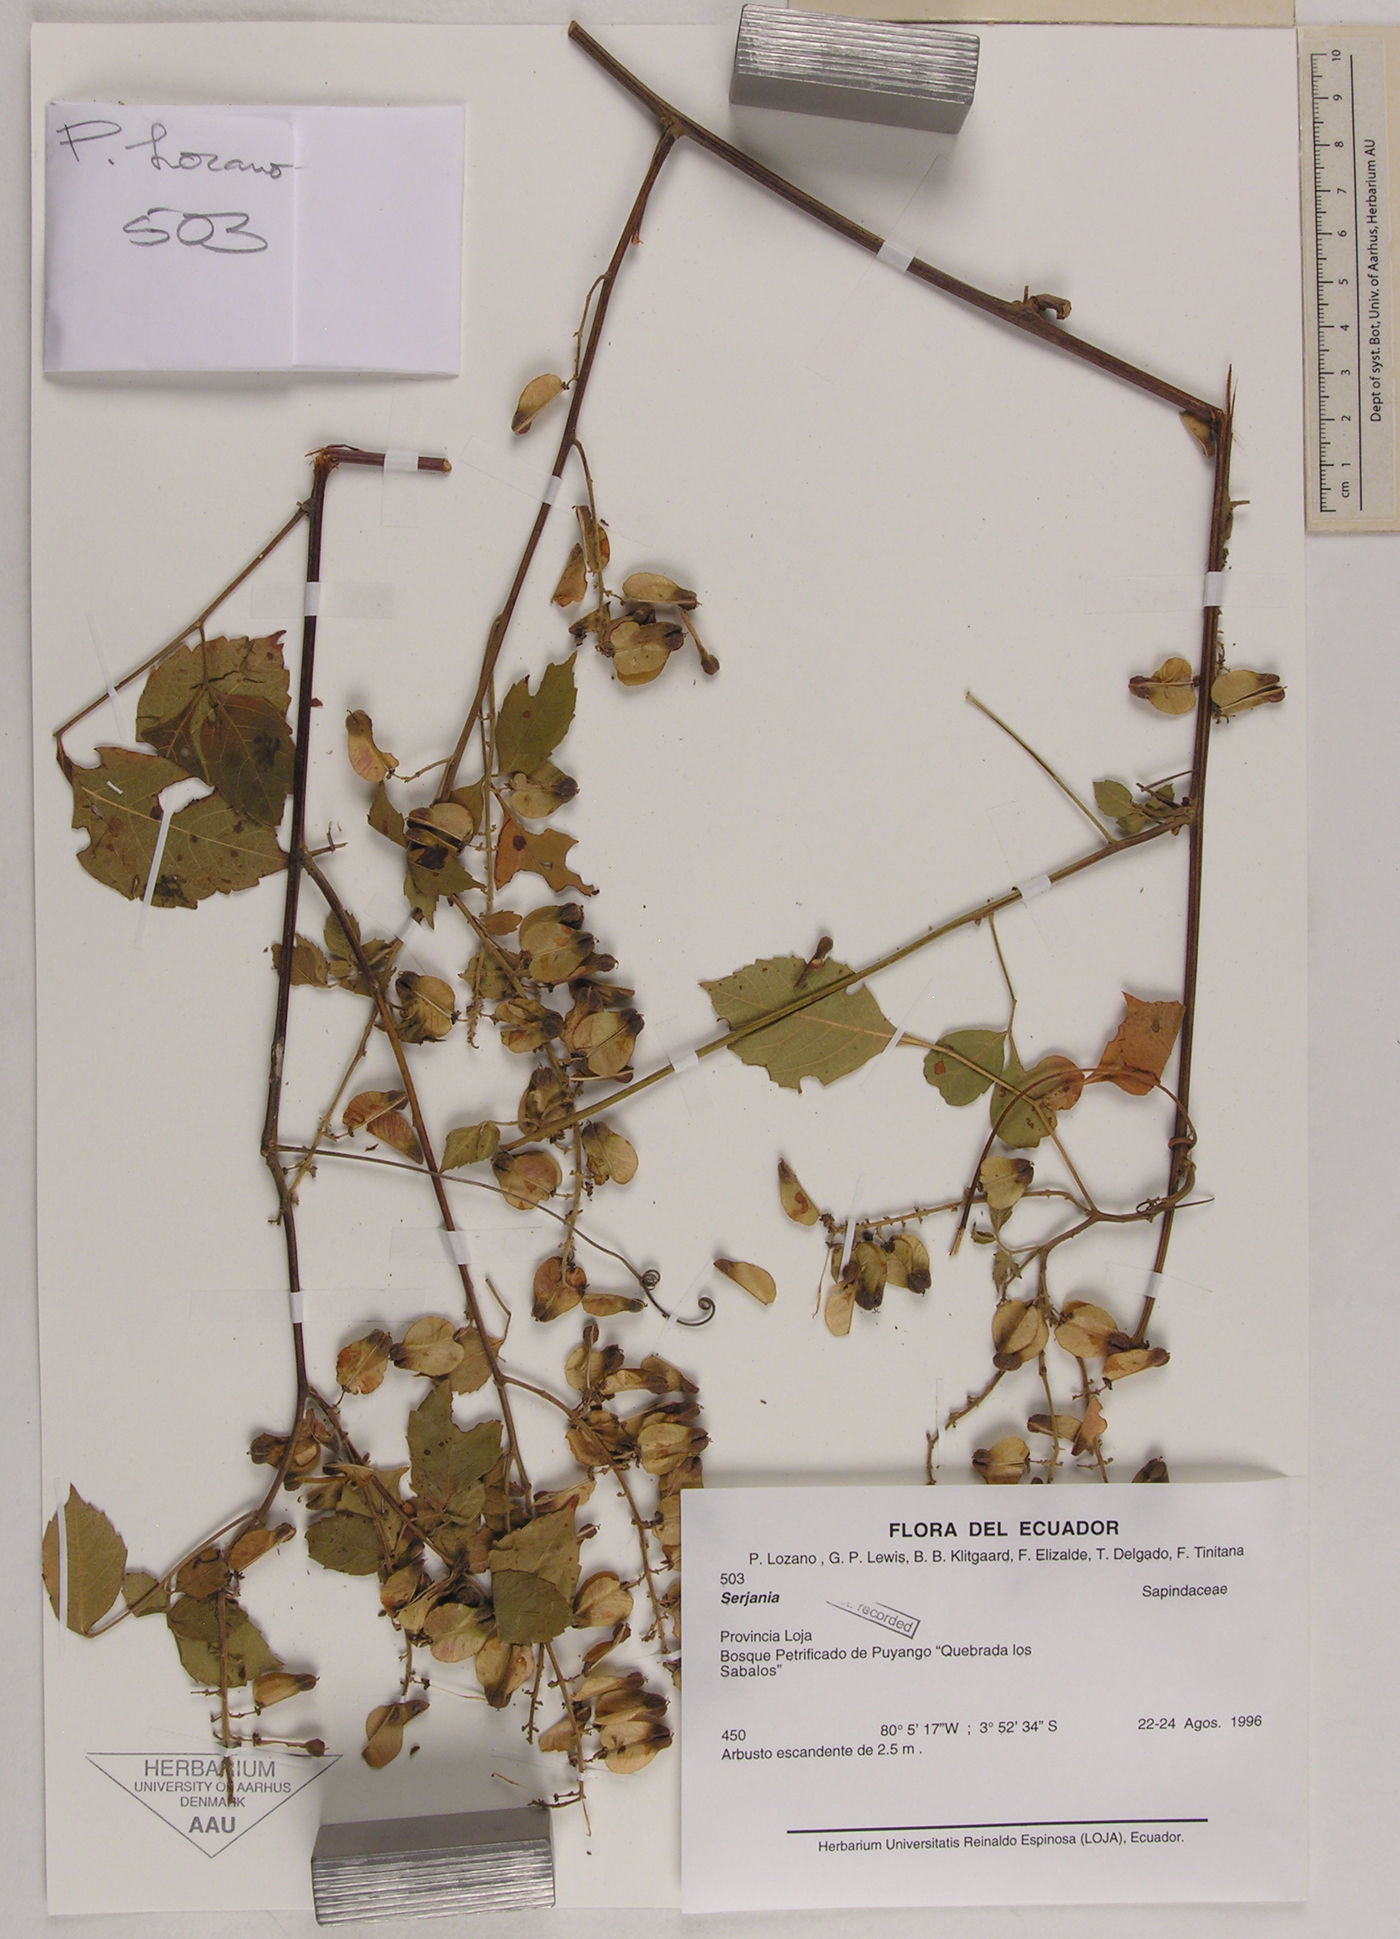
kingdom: Plantae
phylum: Tracheophyta
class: Magnoliopsida
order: Sapindales
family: Sapindaceae
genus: Serjania
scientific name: Serjania
